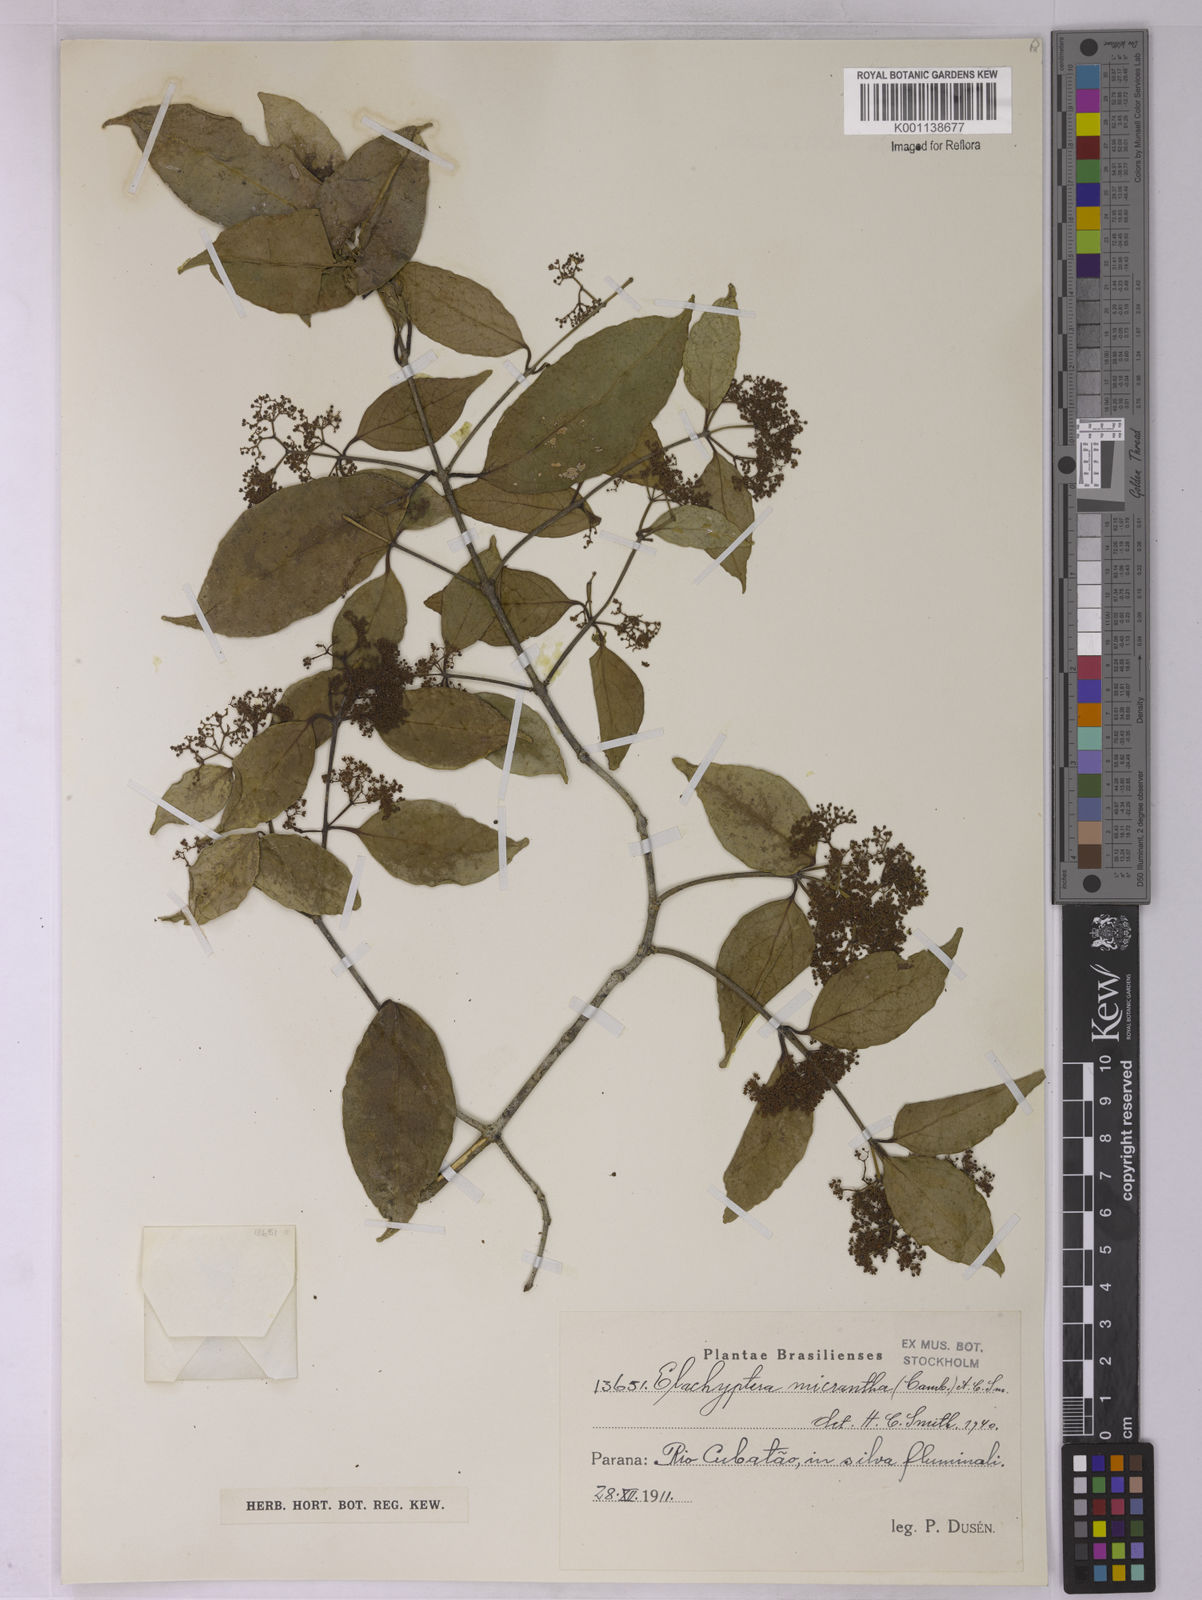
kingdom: Plantae
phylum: Tracheophyta
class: Magnoliopsida
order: Celastrales
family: Celastraceae
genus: Elachyptera
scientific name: Elachyptera micrantha
